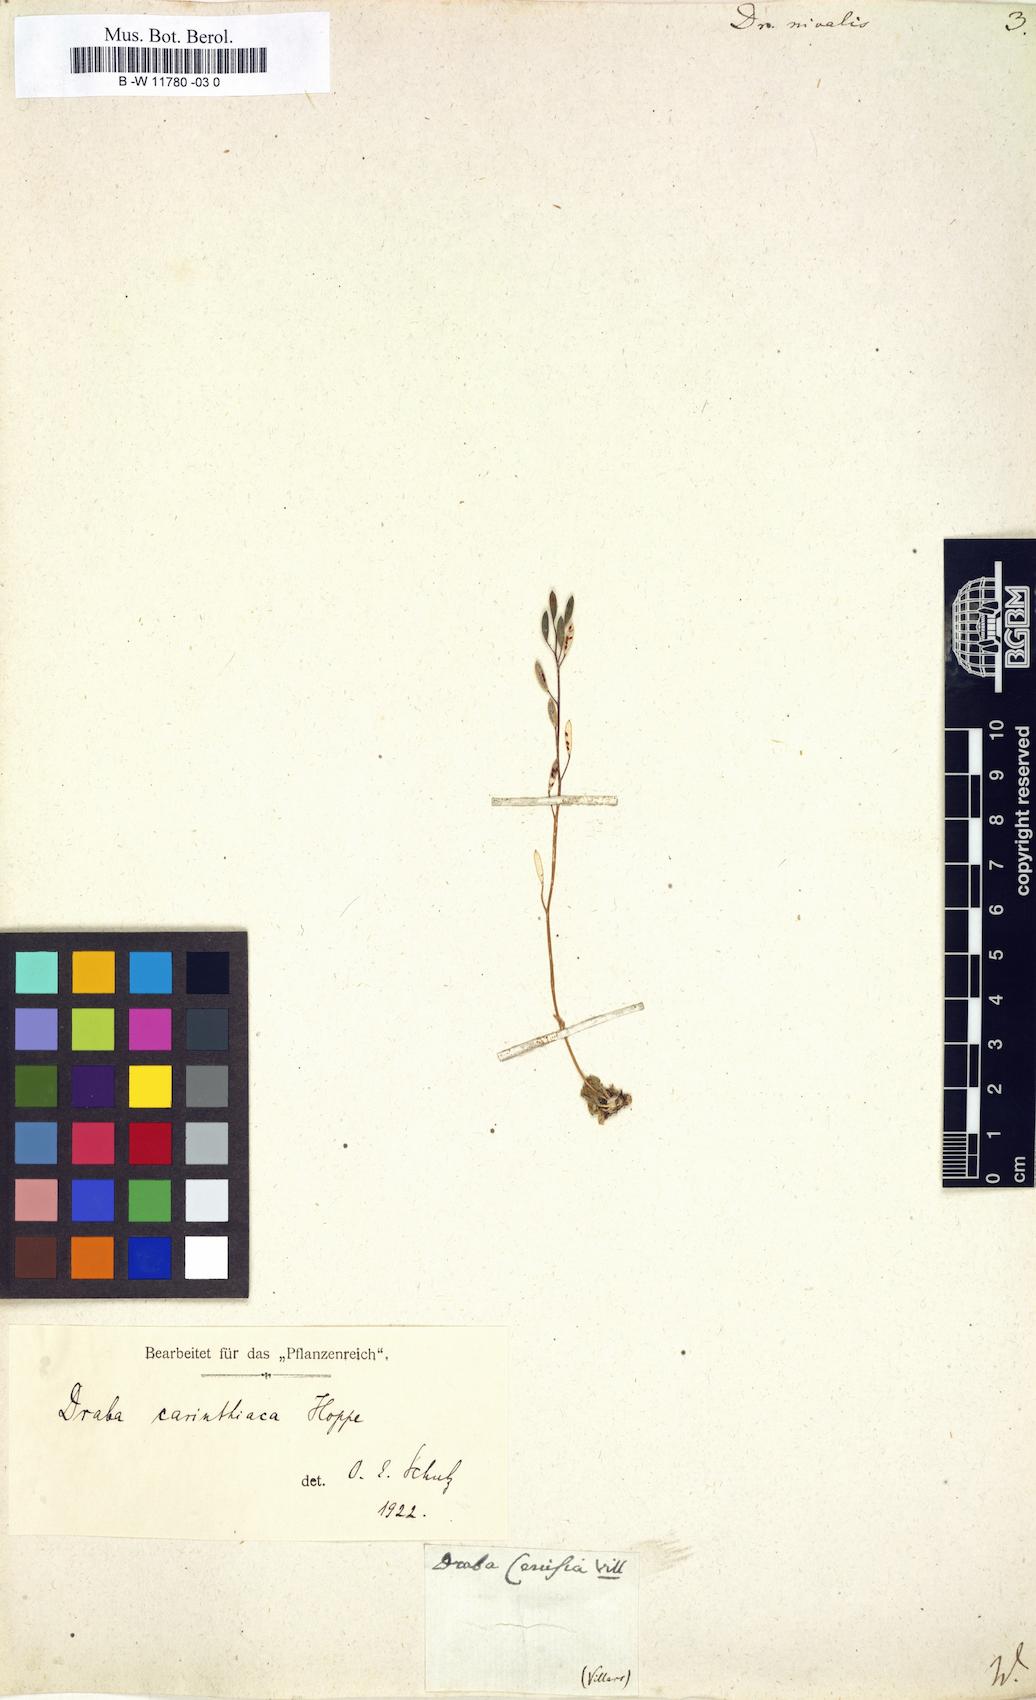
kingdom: Plantae
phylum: Tracheophyta
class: Magnoliopsida
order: Brassicales
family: Brassicaceae
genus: Draba
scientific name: Draba nivalis
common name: Snow draba
